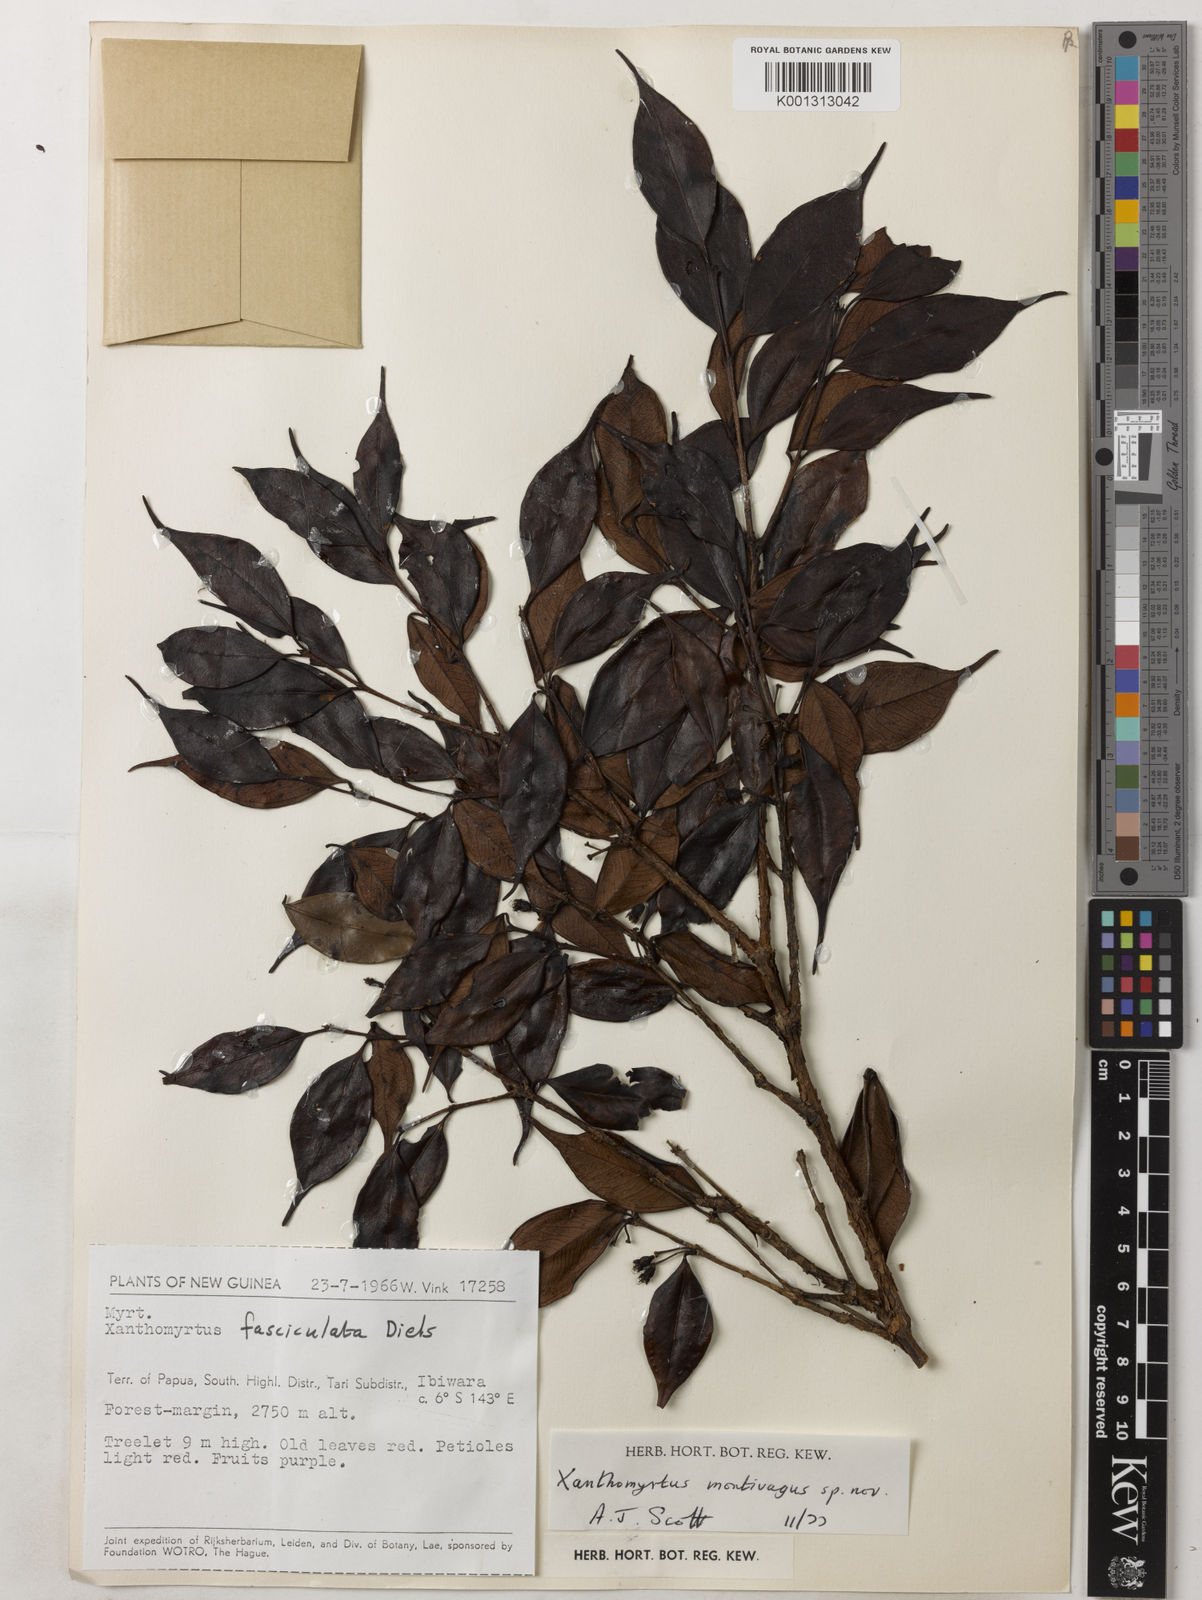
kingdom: Plantae
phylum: Tracheophyta
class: Magnoliopsida
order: Myrtales
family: Myrtaceae
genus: Xanthomyrtus
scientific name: Xanthomyrtus montivaga
